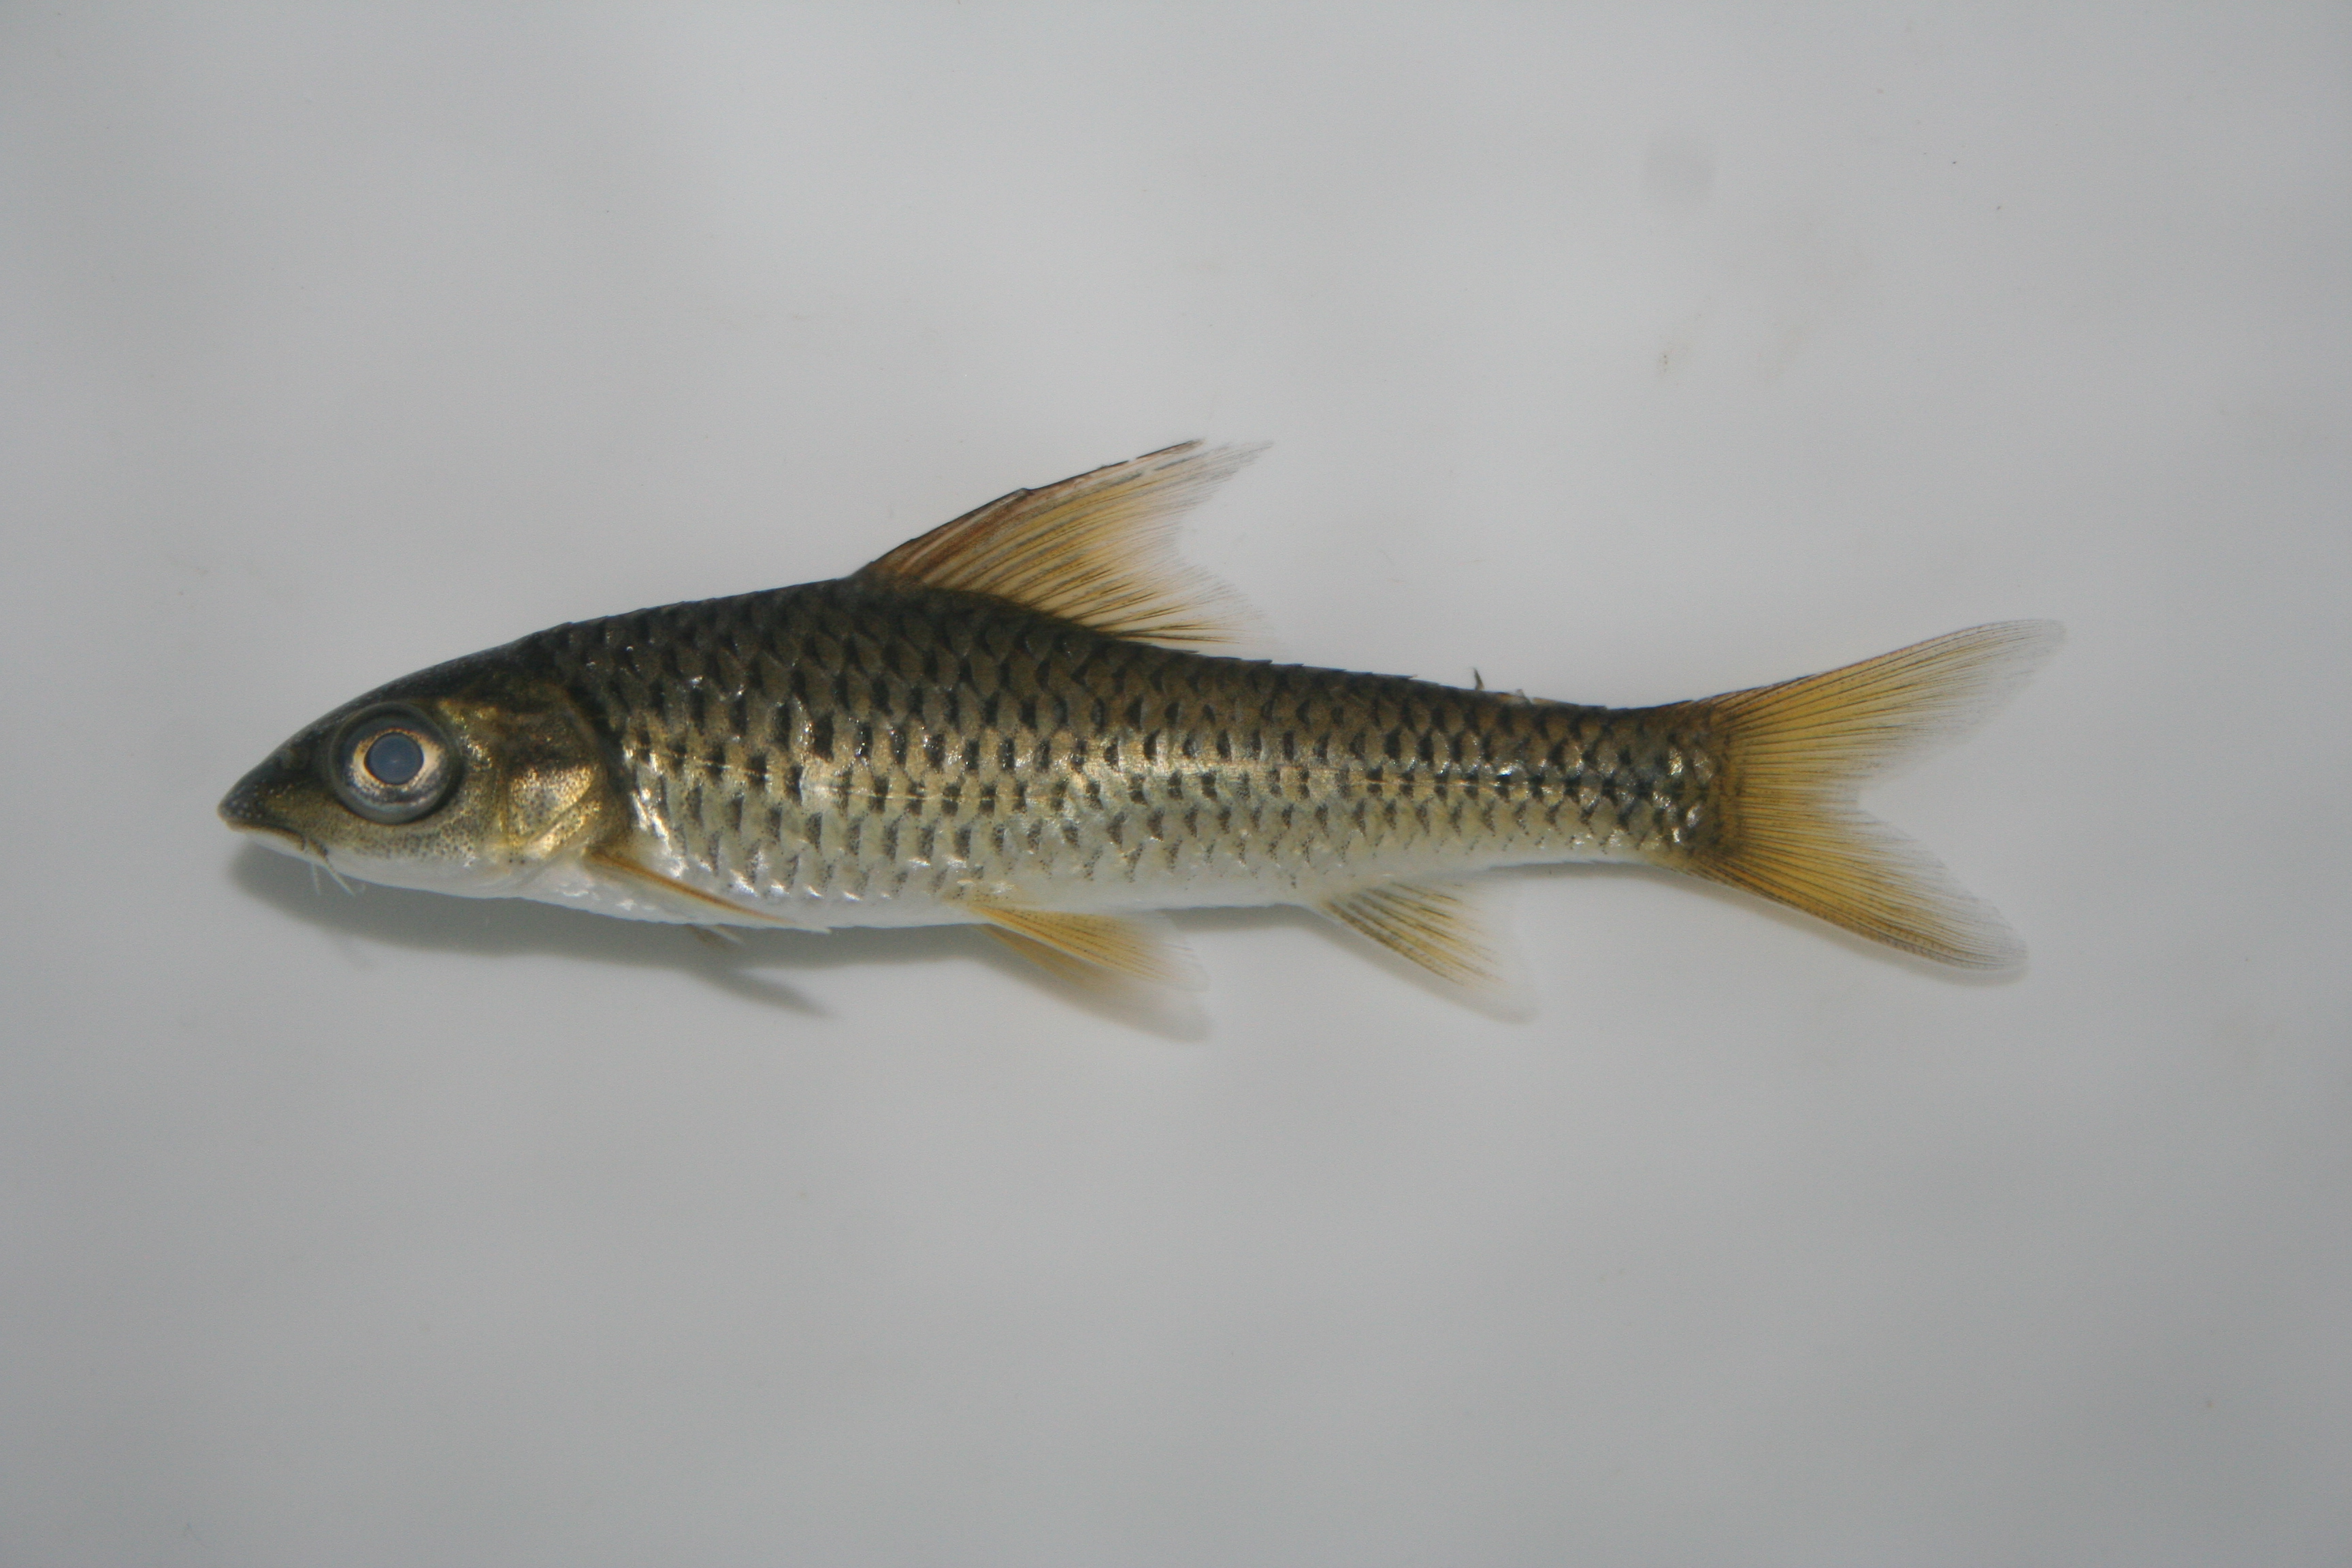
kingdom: Animalia
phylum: Chordata
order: Cypriniformes
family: Cyprinidae
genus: Labeobarbus
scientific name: Labeobarbus rosae
